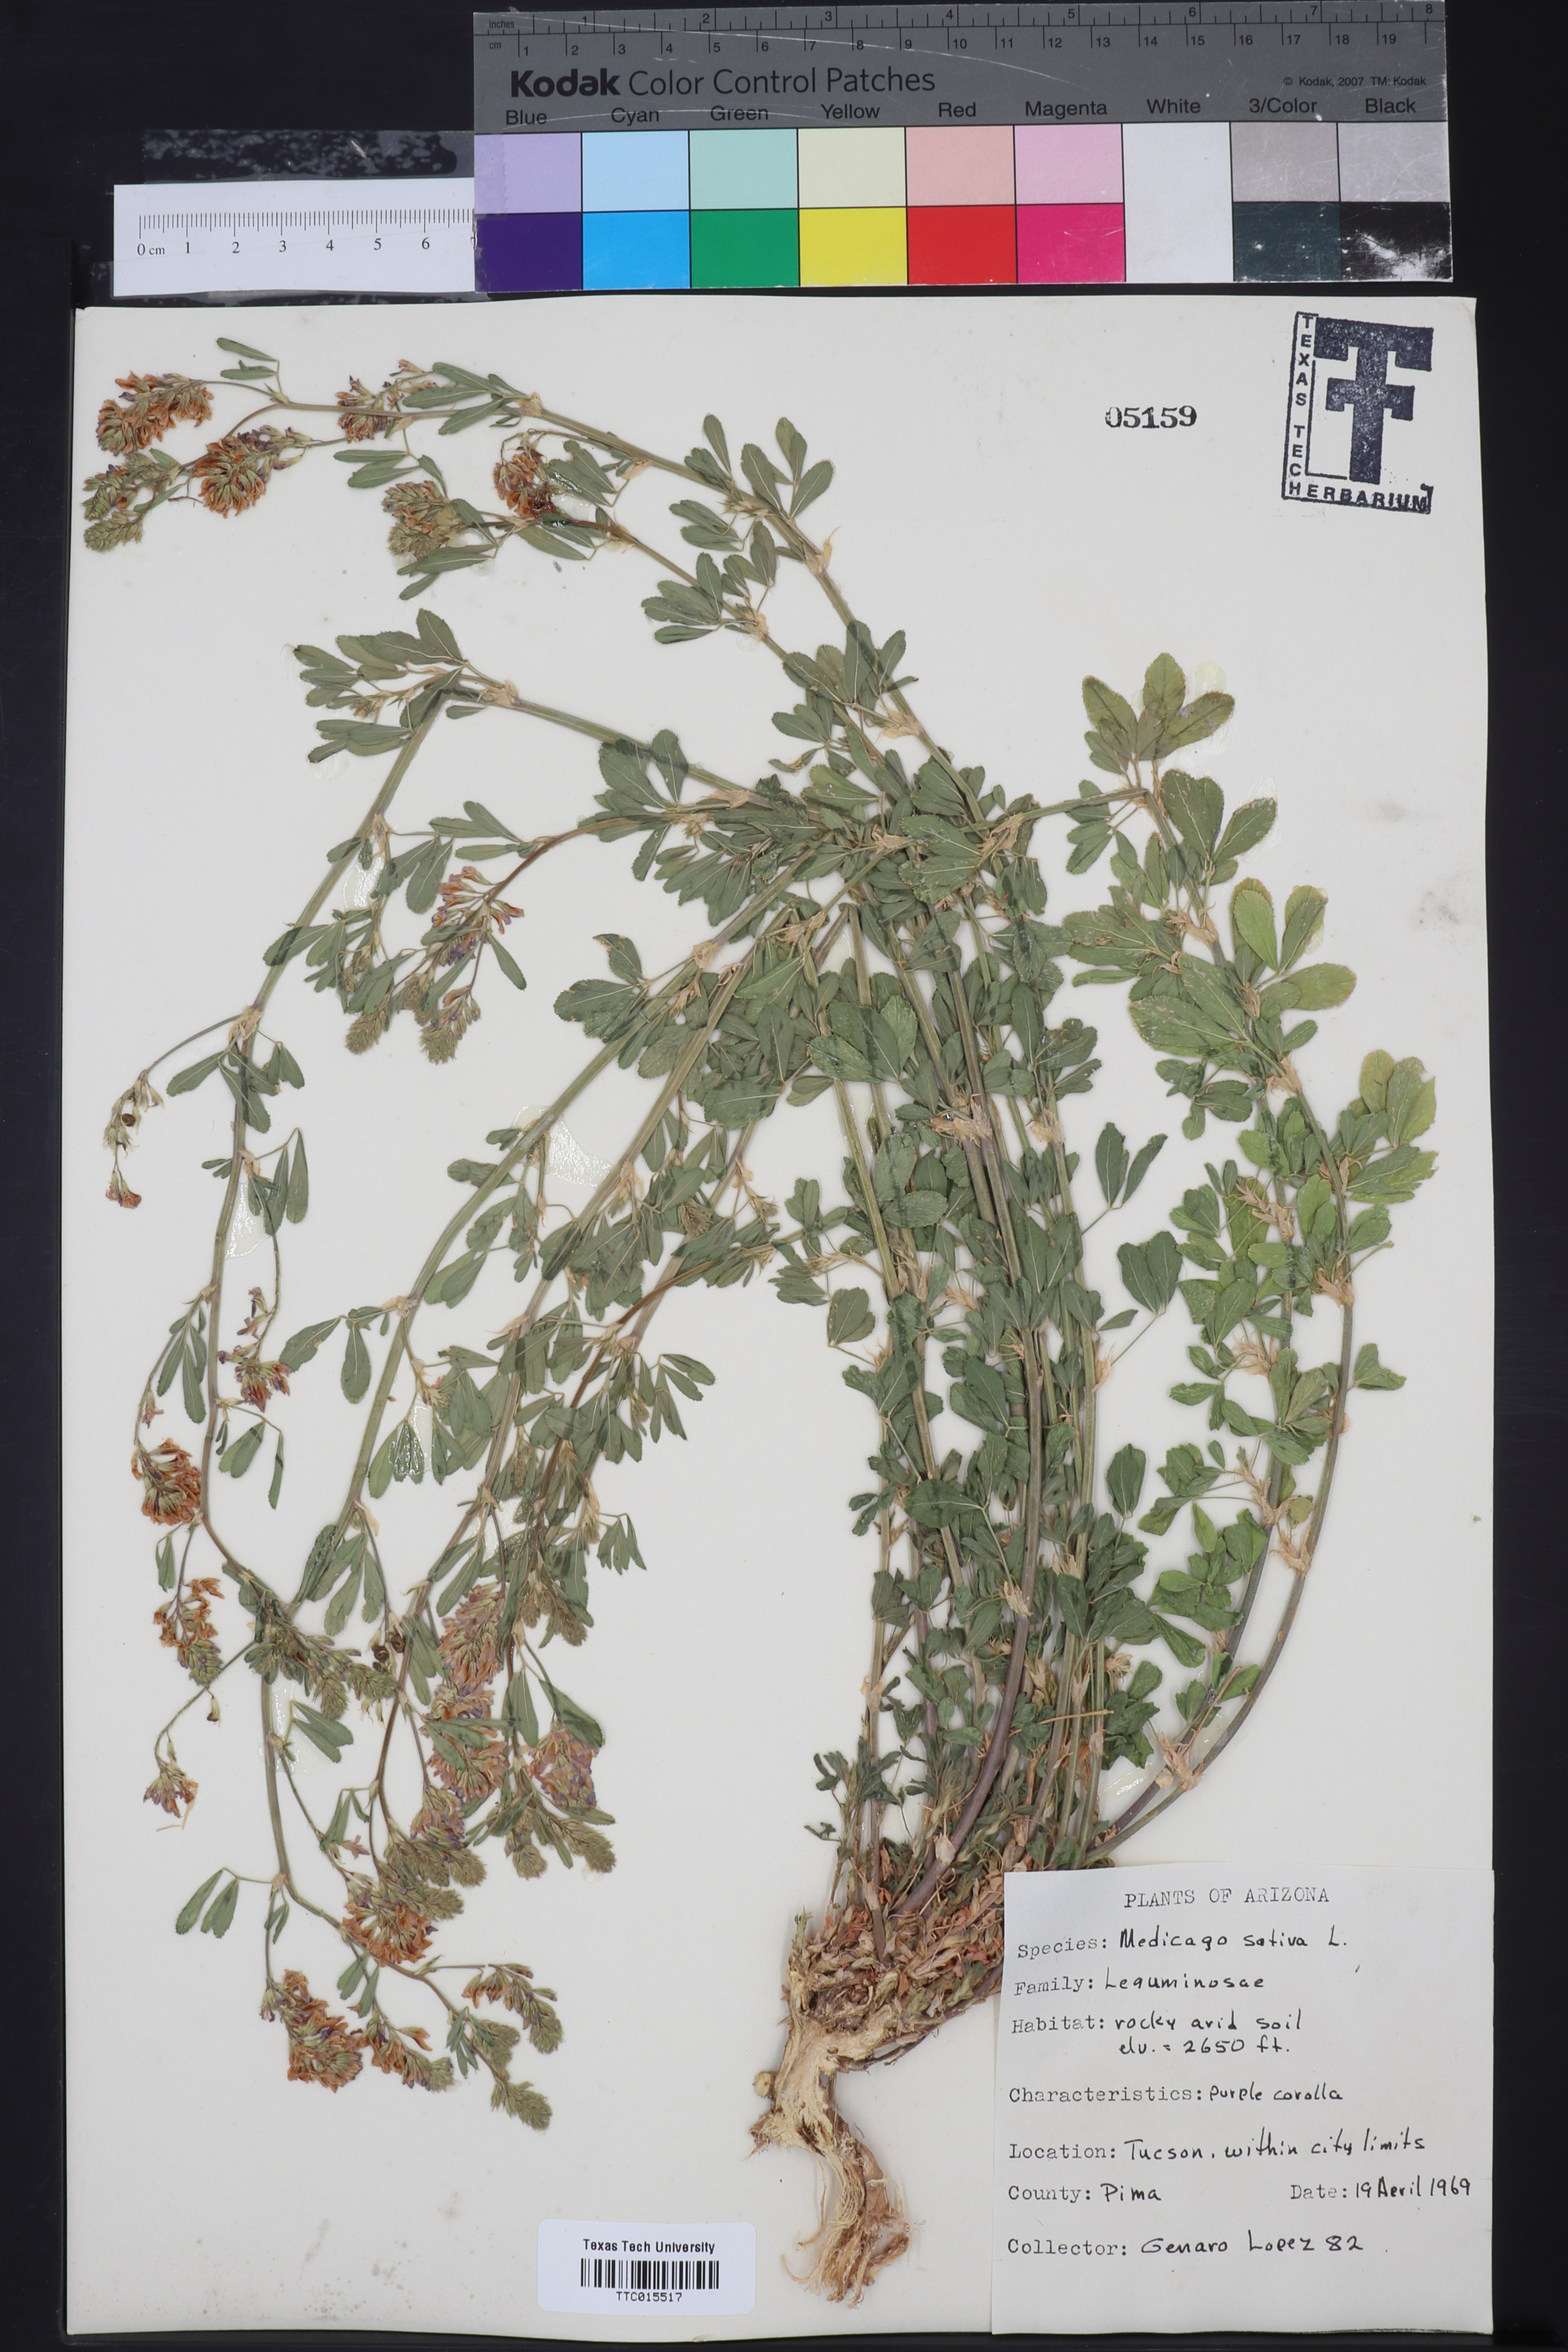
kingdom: Plantae
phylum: Tracheophyta
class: Magnoliopsida
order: Fabales
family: Fabaceae
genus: Medicago
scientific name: Medicago sativa
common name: Alfalfa
